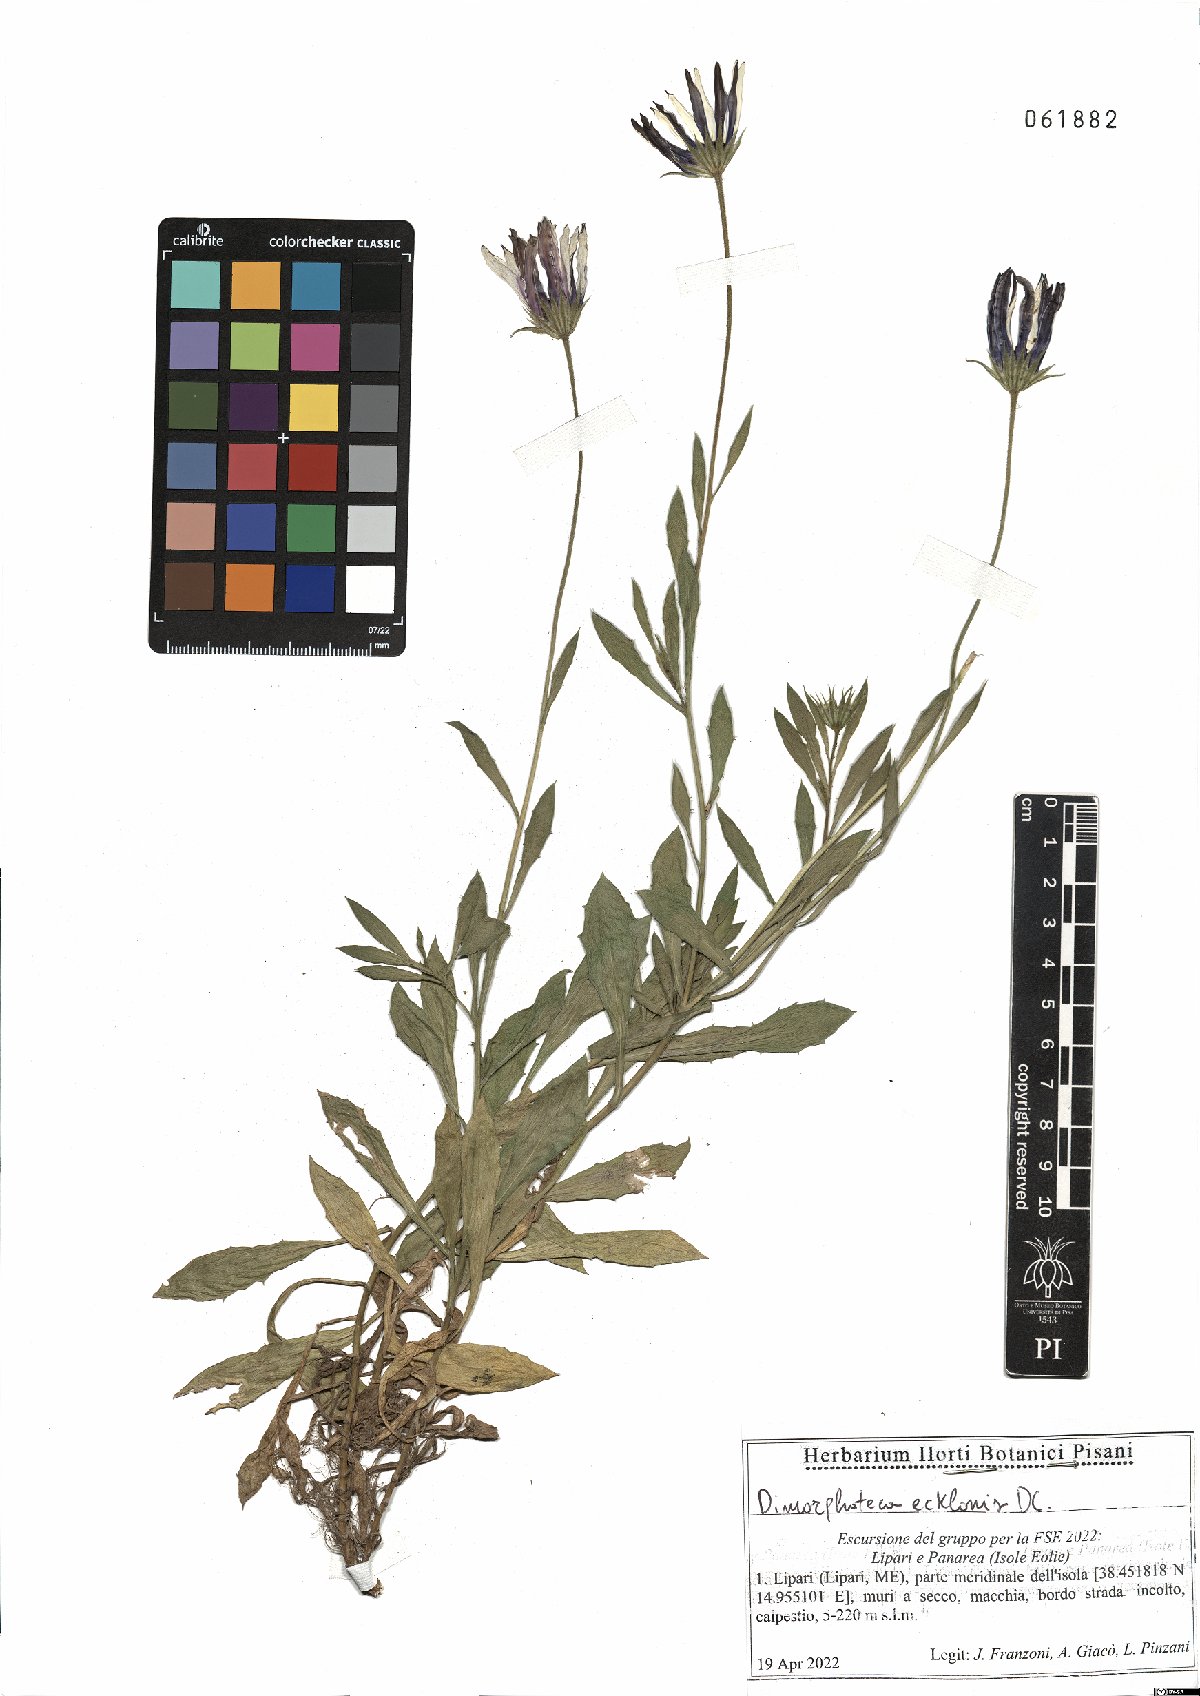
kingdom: Plantae
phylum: Tracheophyta
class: Magnoliopsida
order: Asterales
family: Asteraceae
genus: Dimorphotheca
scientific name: Dimorphotheca ecklonis
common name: Vanstaden's river daisy
